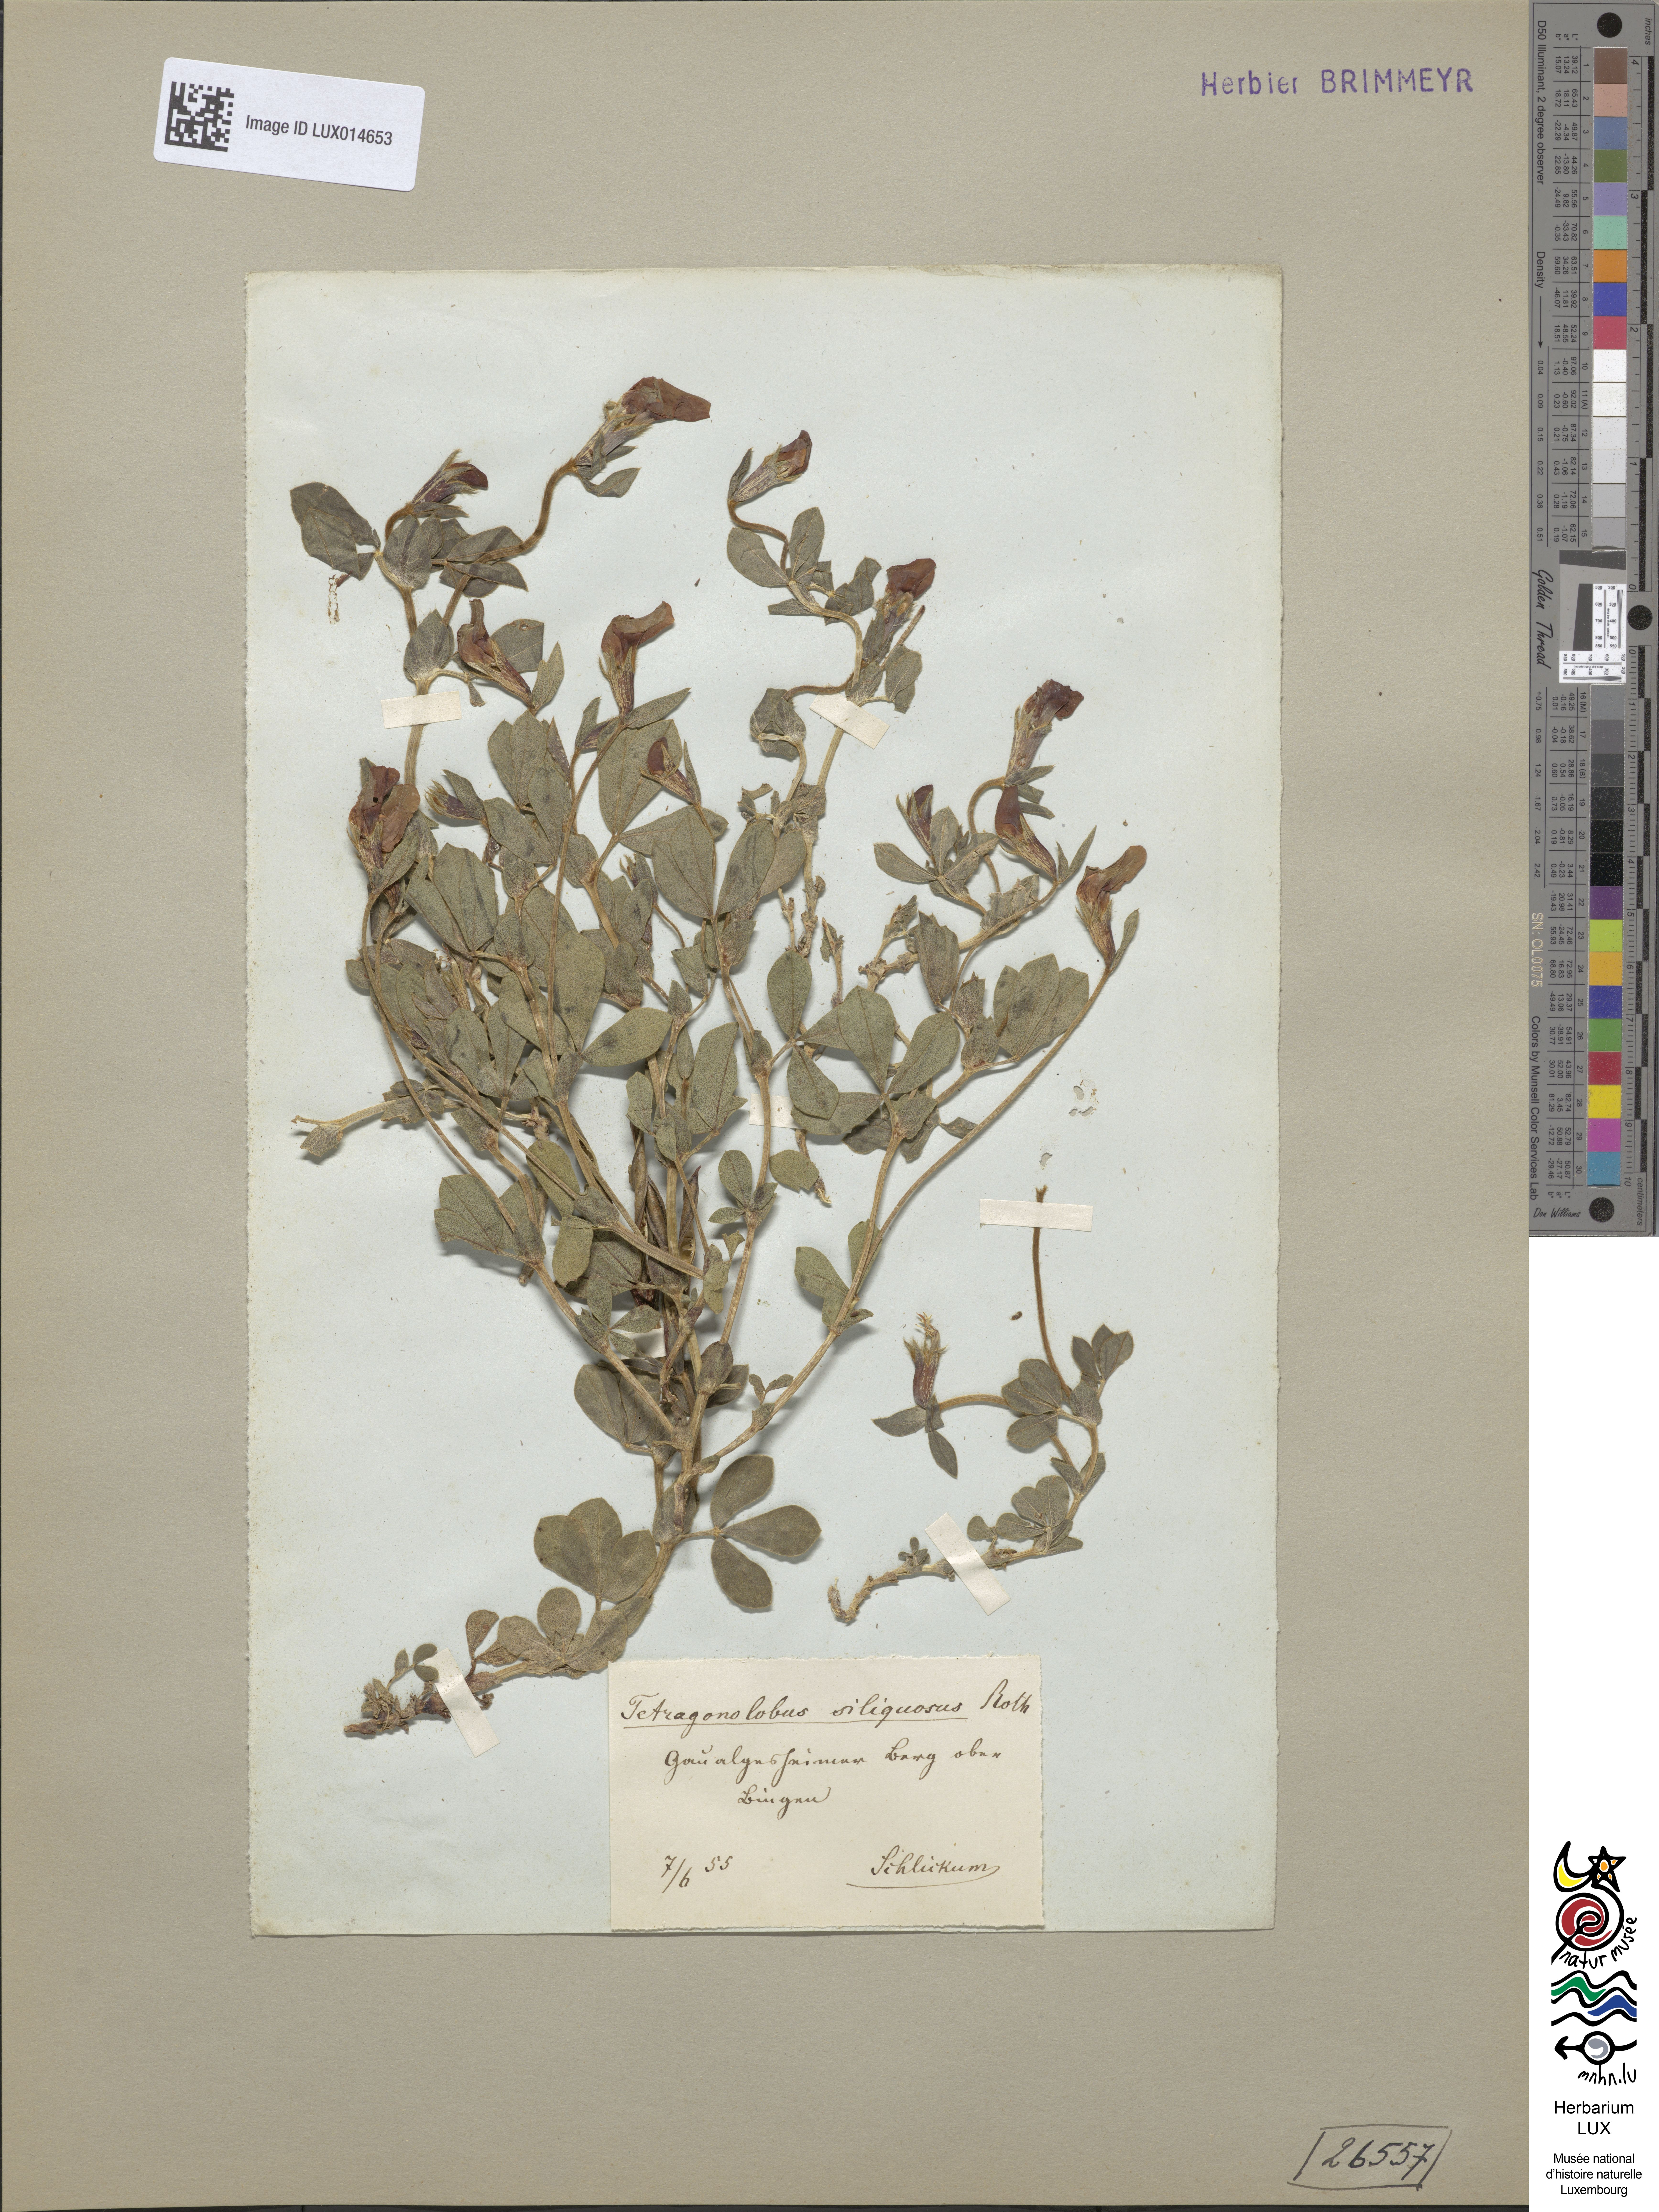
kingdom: Plantae
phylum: Tracheophyta
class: Magnoliopsida
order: Fabales
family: Fabaceae
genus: Lotus
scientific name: Lotus maritimus
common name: Dragon's-teeth
